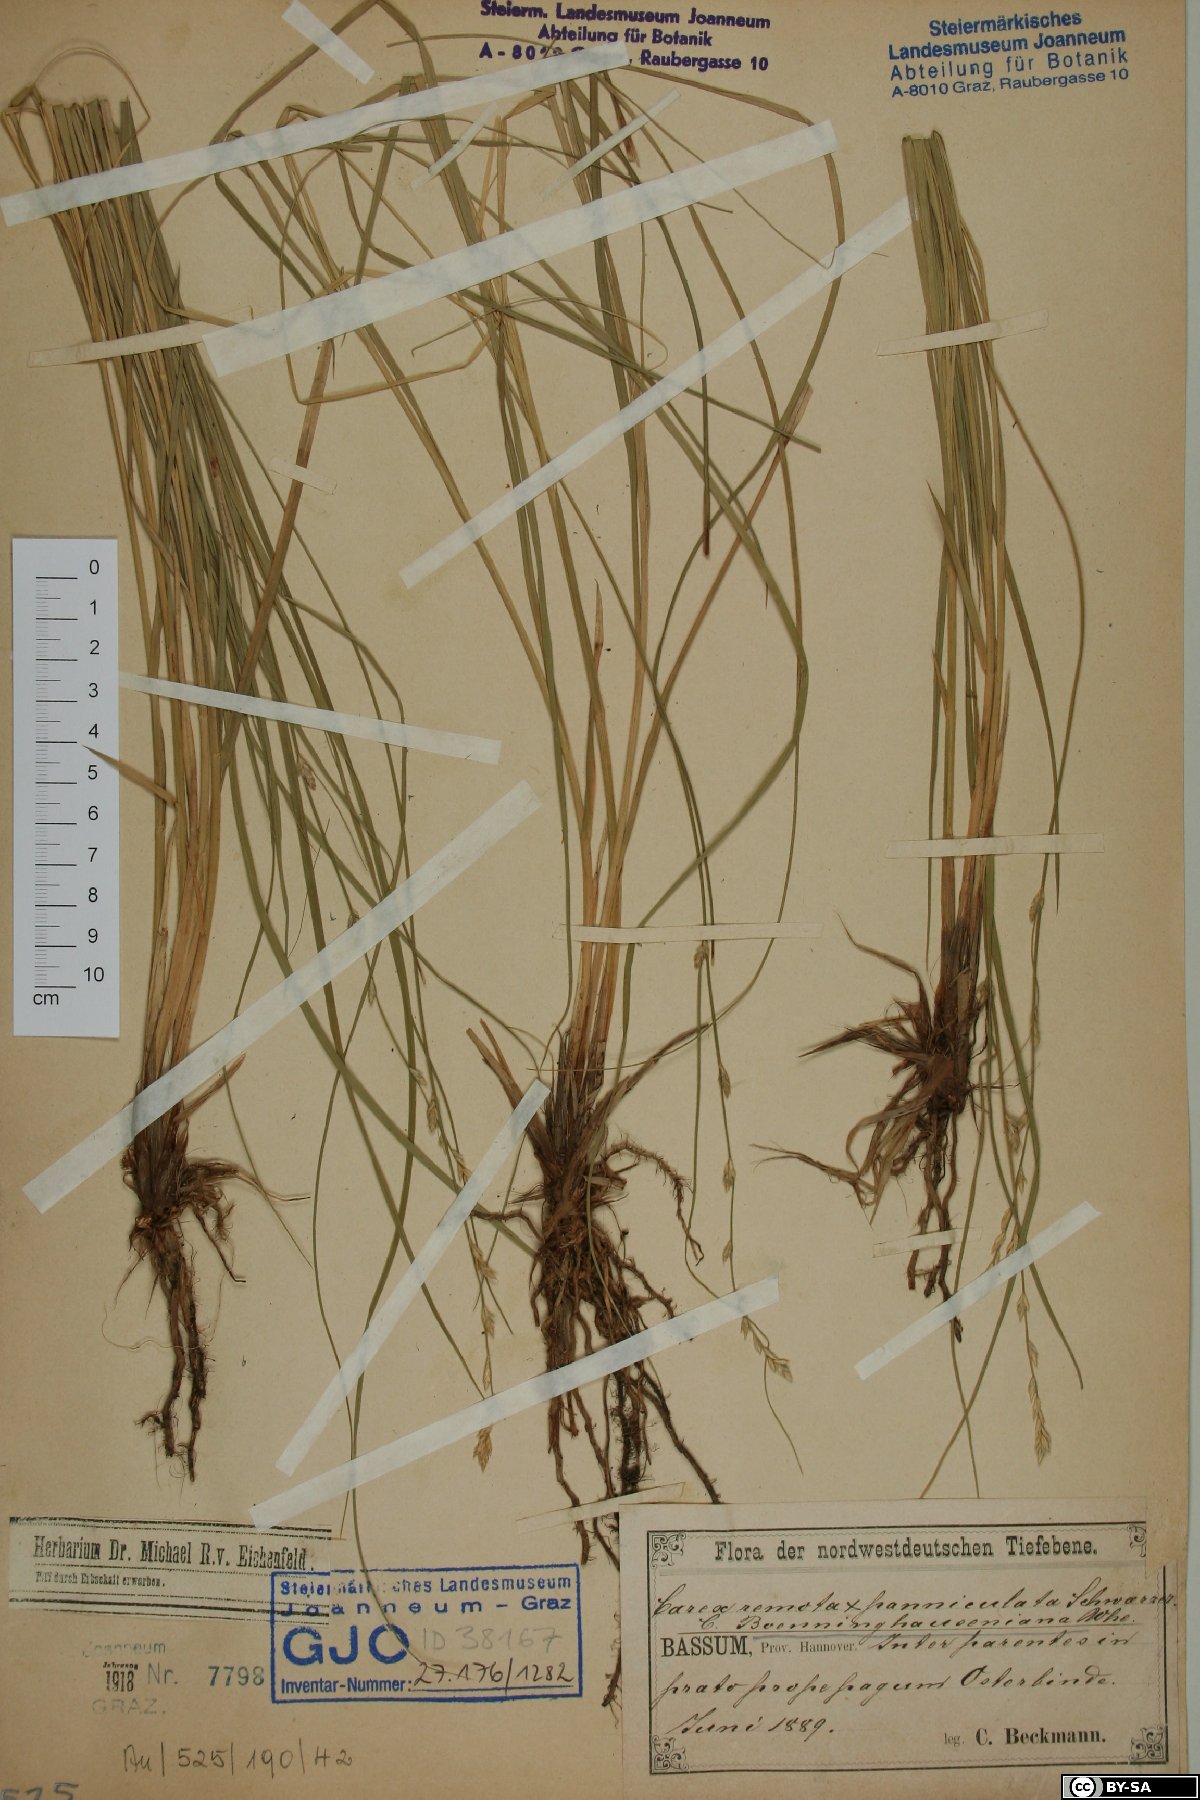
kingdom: Plantae
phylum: Tracheophyta
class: Liliopsida
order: Poales
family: Cyperaceae
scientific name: Cyperaceae
